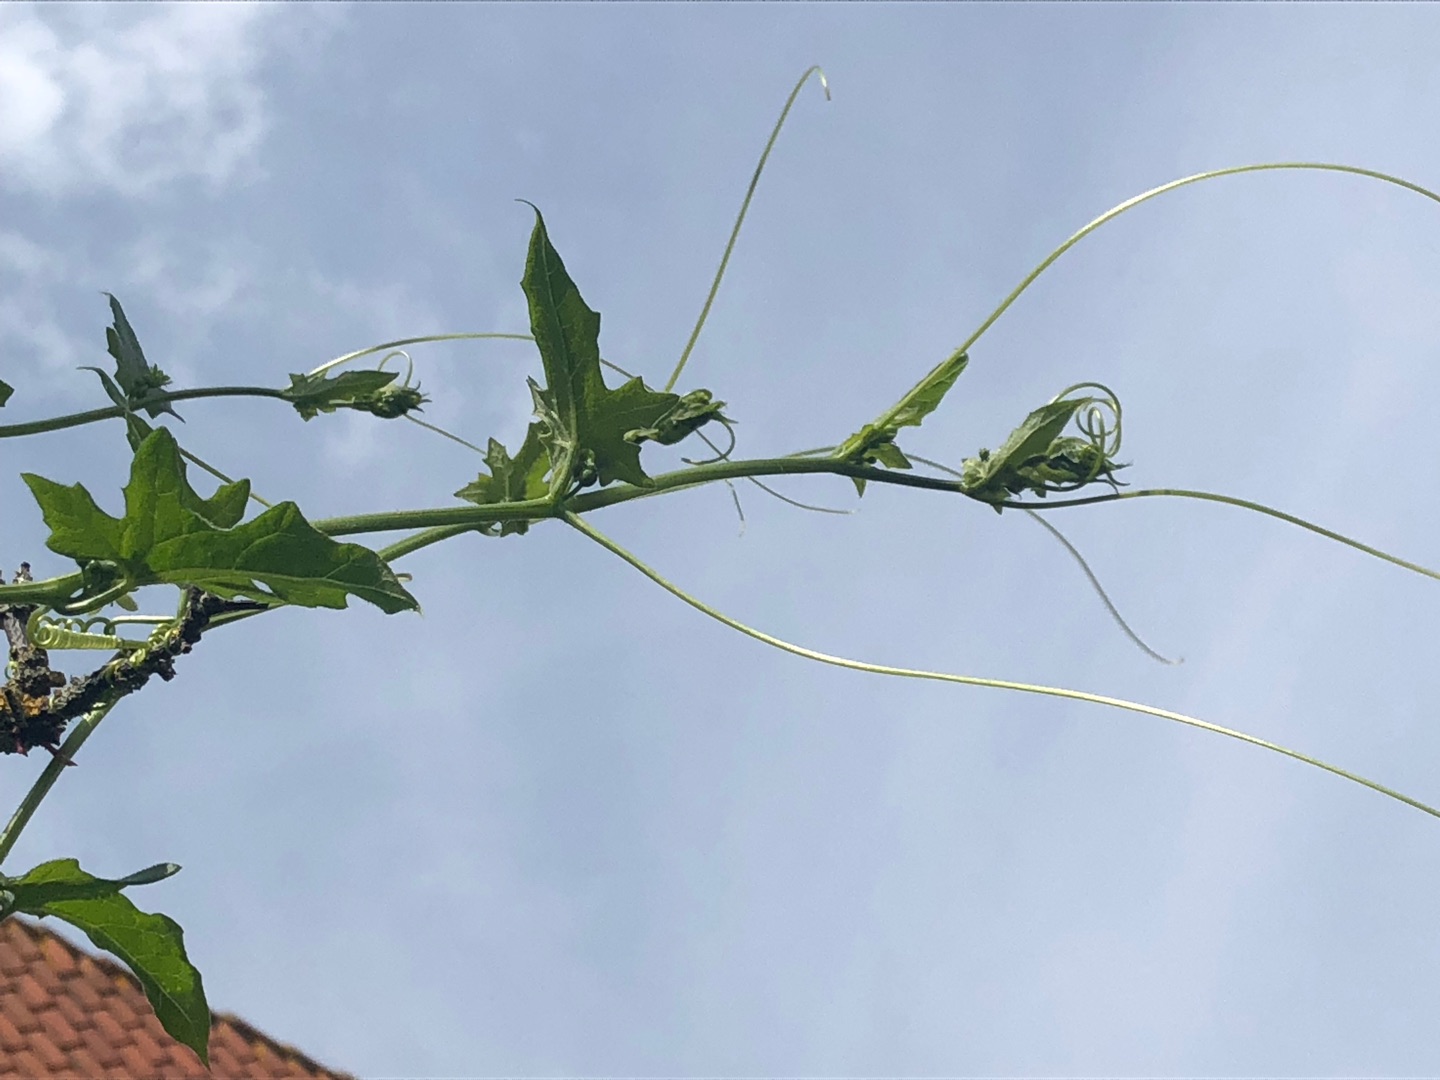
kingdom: Plantae
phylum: Tracheophyta
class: Magnoliopsida
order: Cucurbitales
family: Cucurbitaceae
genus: Bryonia
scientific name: Bryonia alba
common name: Enbo galdebær
